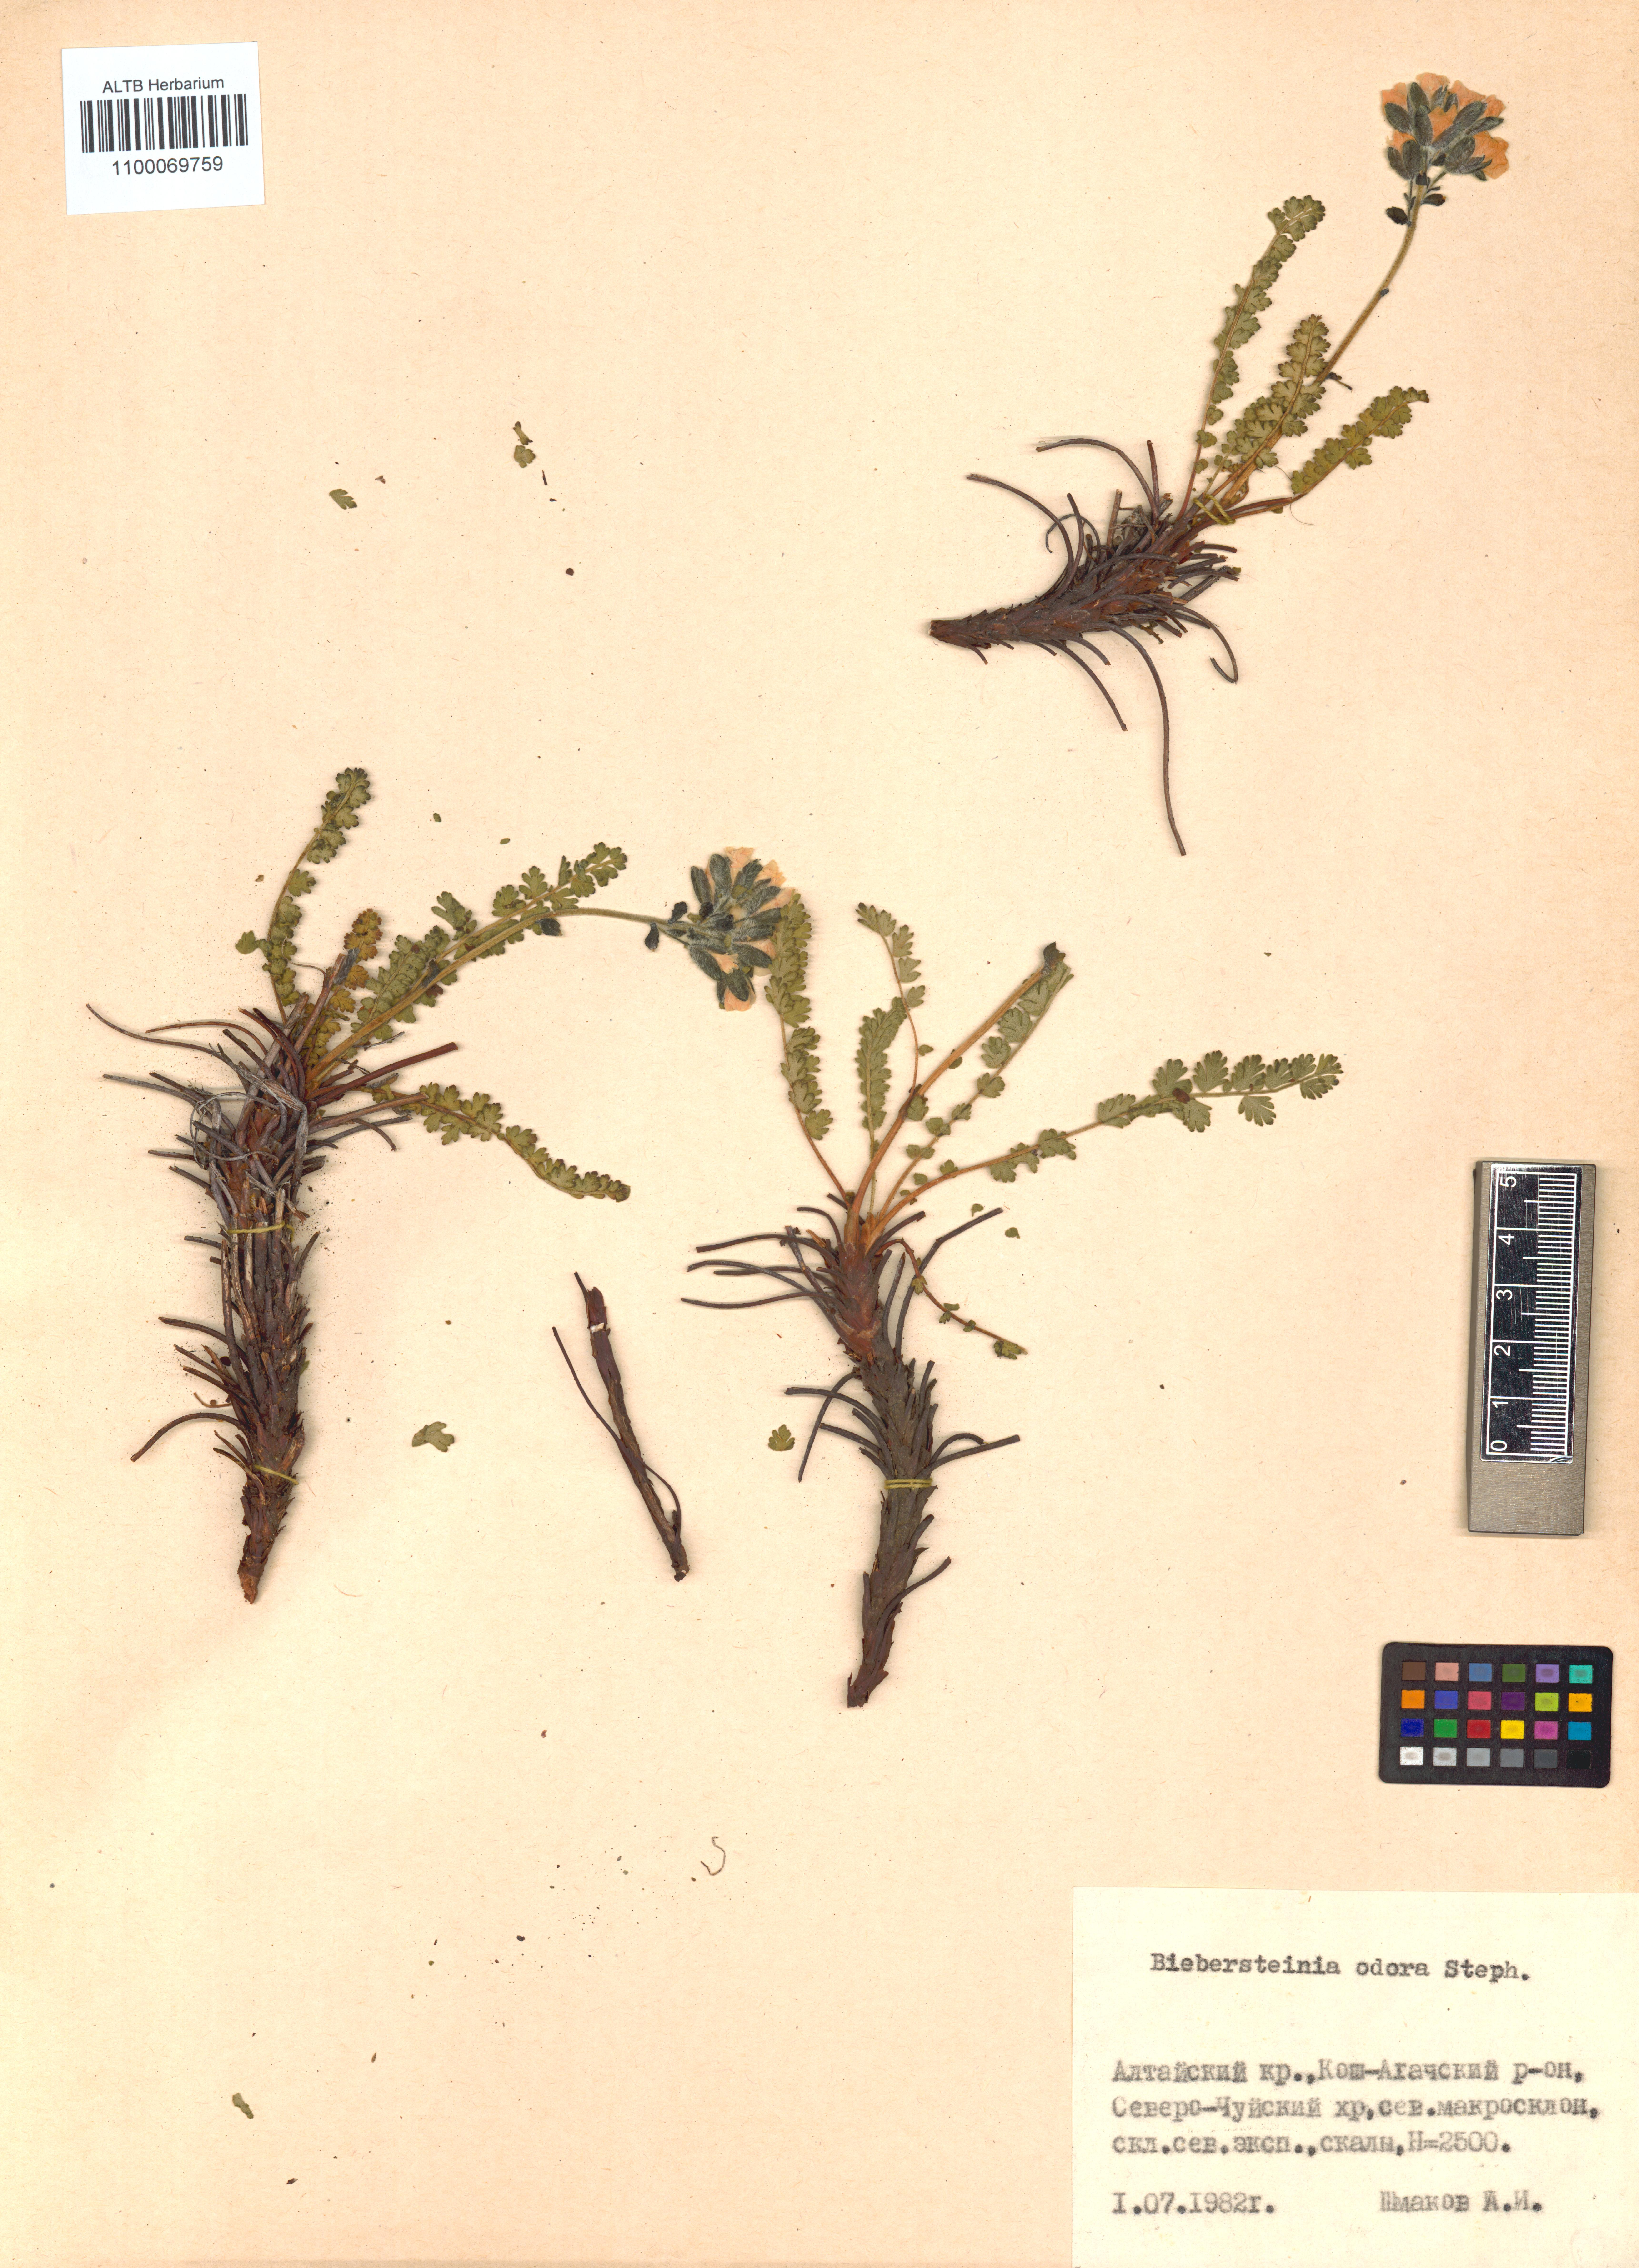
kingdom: Plantae
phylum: Tracheophyta
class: Magnoliopsida
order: Sapindales
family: Biebersteiniaceae
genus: Biebersteinia
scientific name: Biebersteinia odora
